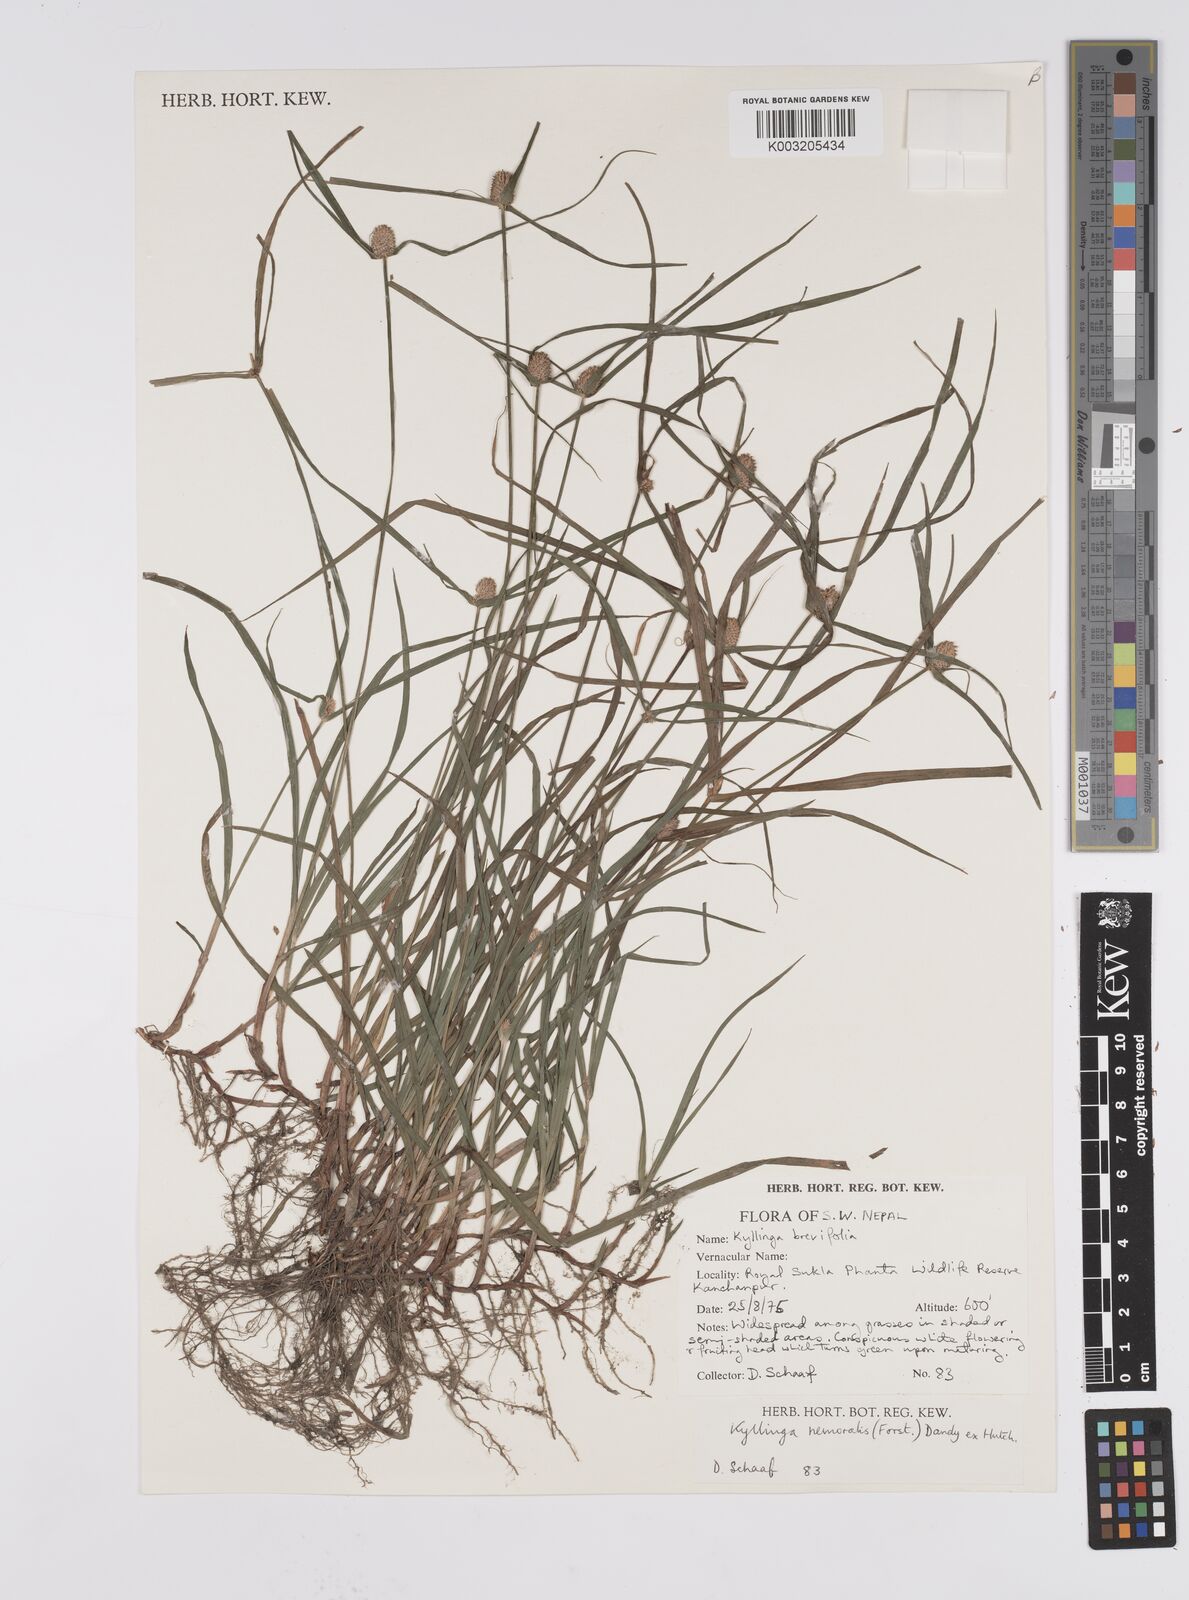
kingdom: Plantae
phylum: Tracheophyta
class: Liliopsida
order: Poales
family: Cyperaceae
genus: Cyperus
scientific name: Cyperus nemoralis
